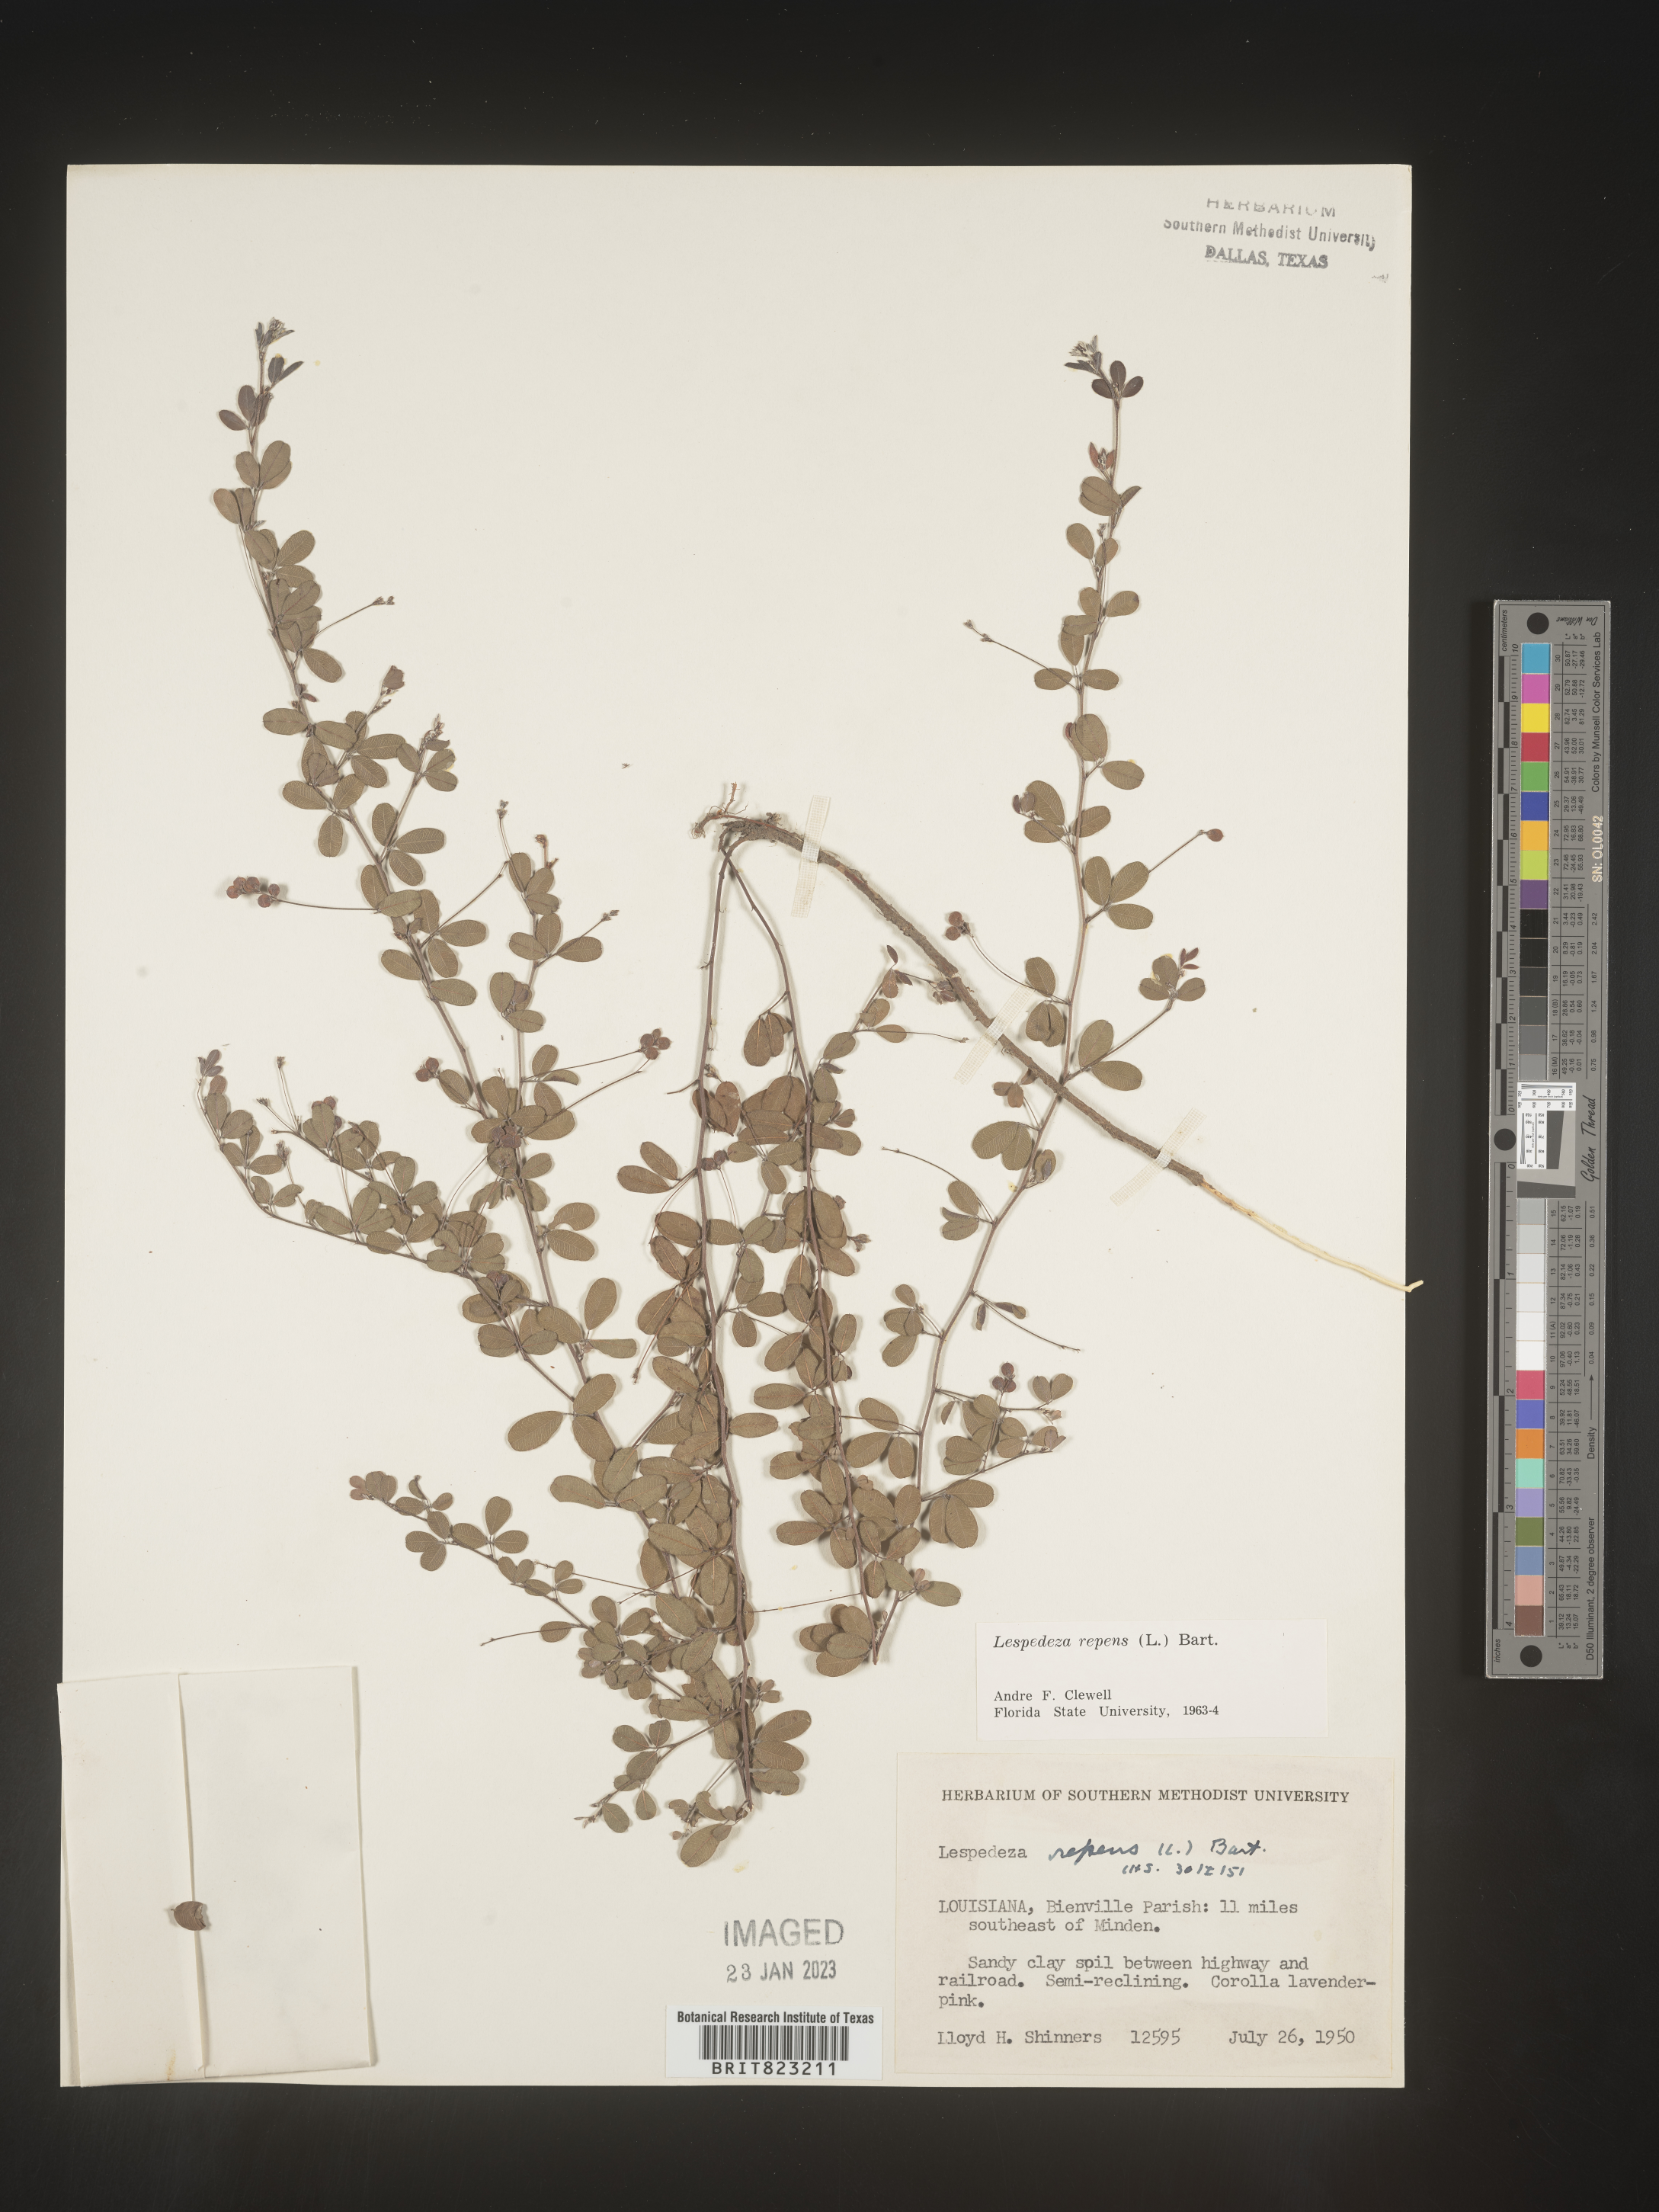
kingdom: Plantae
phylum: Tracheophyta
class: Magnoliopsida
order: Fabales
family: Fabaceae
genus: Lespedeza
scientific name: Lespedeza repens
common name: Creeping bush-clover
